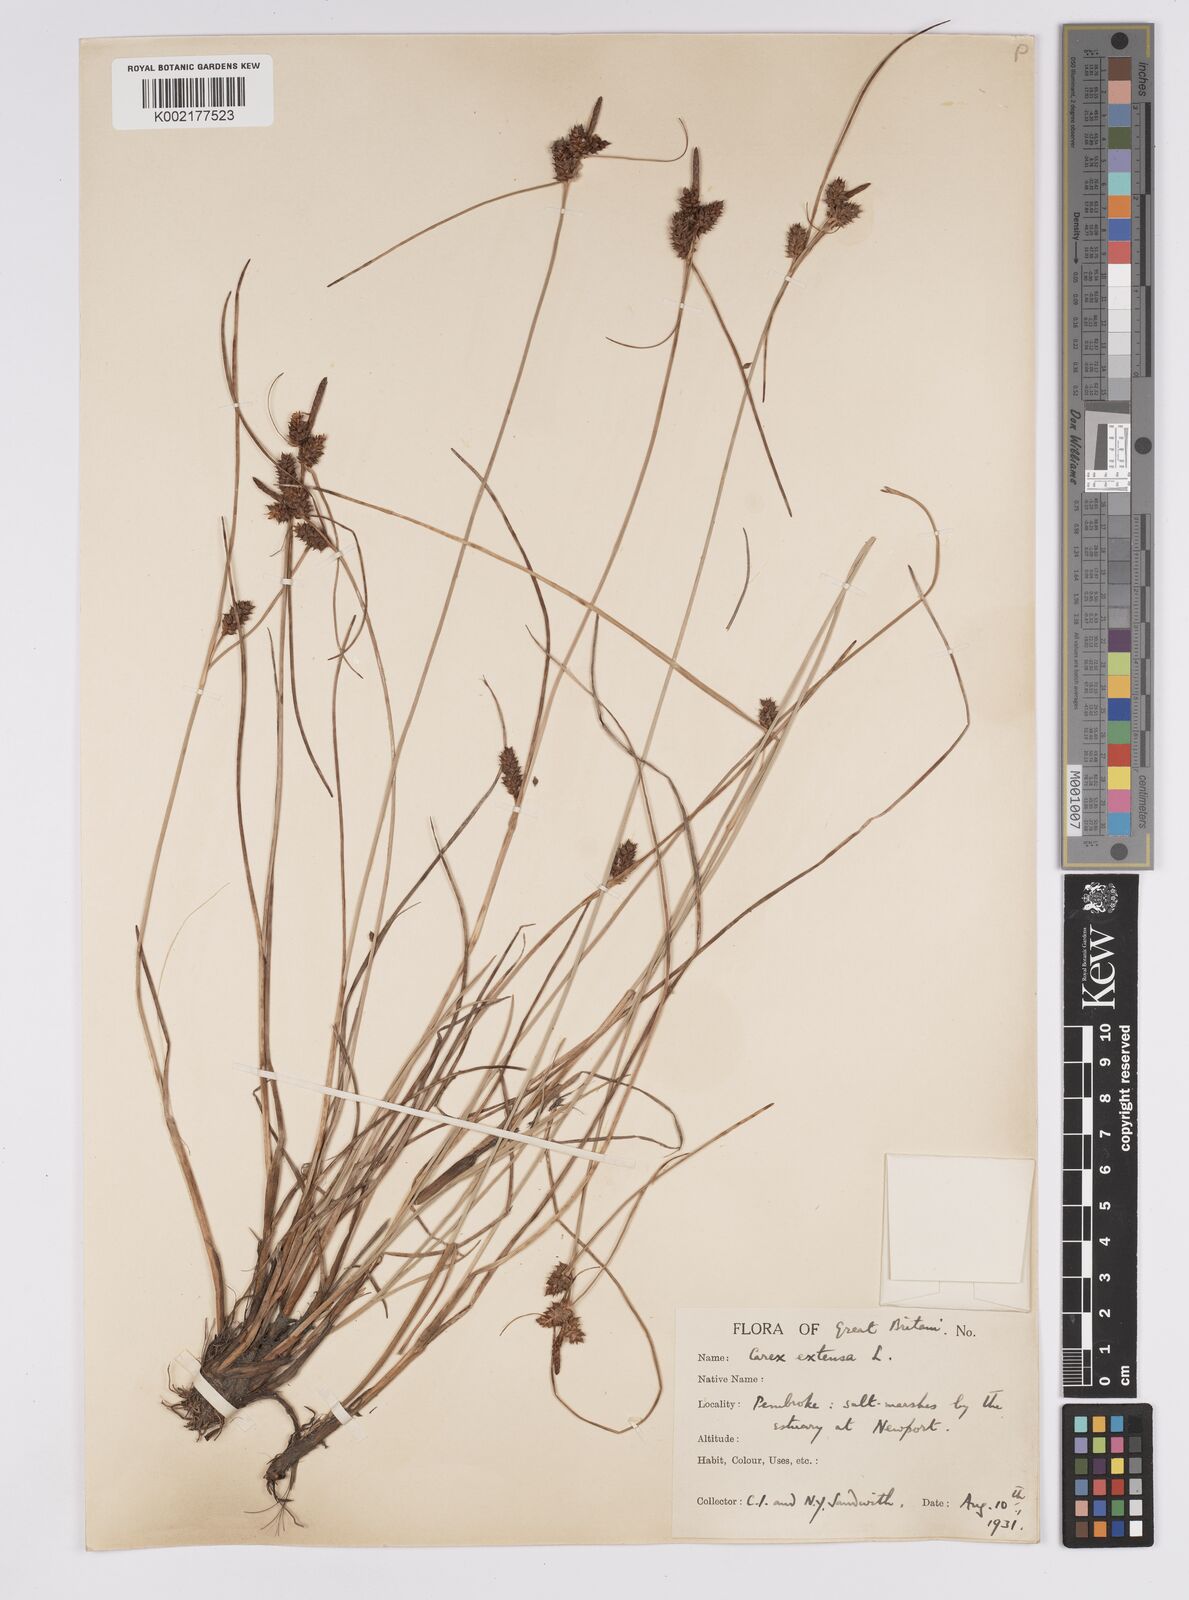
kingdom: Plantae
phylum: Tracheophyta
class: Liliopsida
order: Poales
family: Cyperaceae
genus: Carex
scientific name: Carex extensa
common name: Long-bracted sedge
